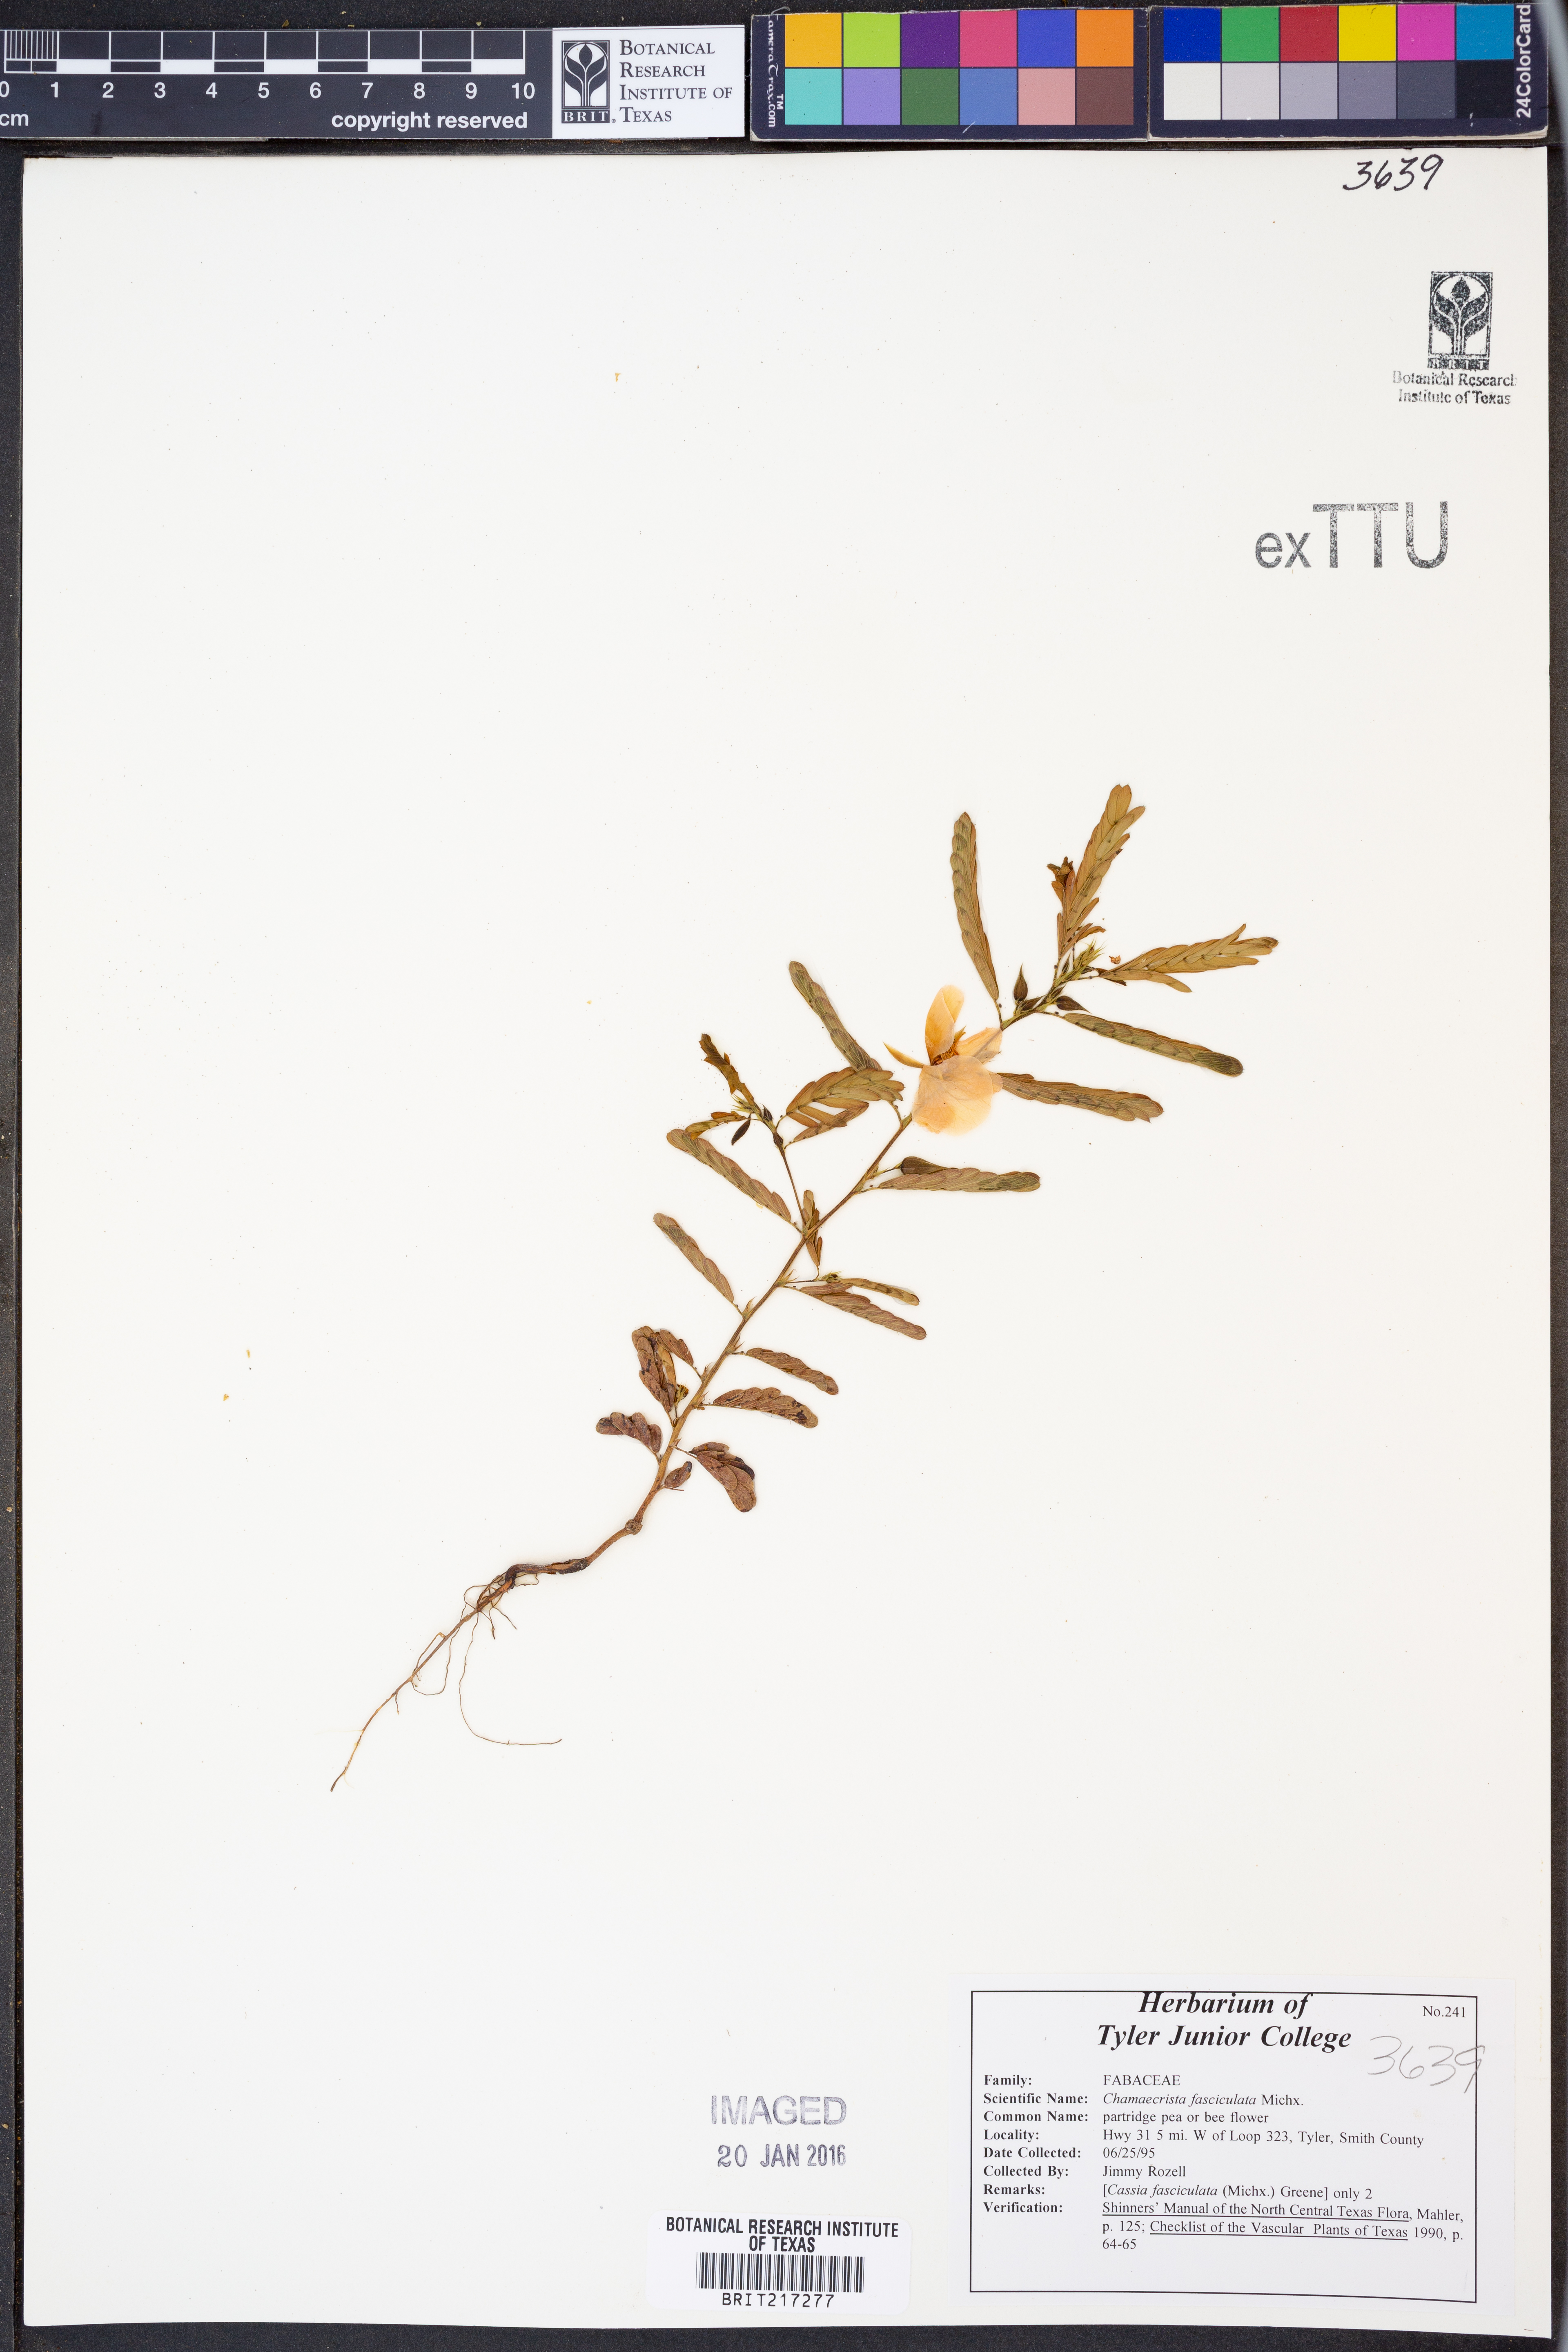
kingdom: Plantae
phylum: Tracheophyta
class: Magnoliopsida
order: Fabales
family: Fabaceae
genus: Chamaecrista
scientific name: Chamaecrista fasciculata
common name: Golden cassia
